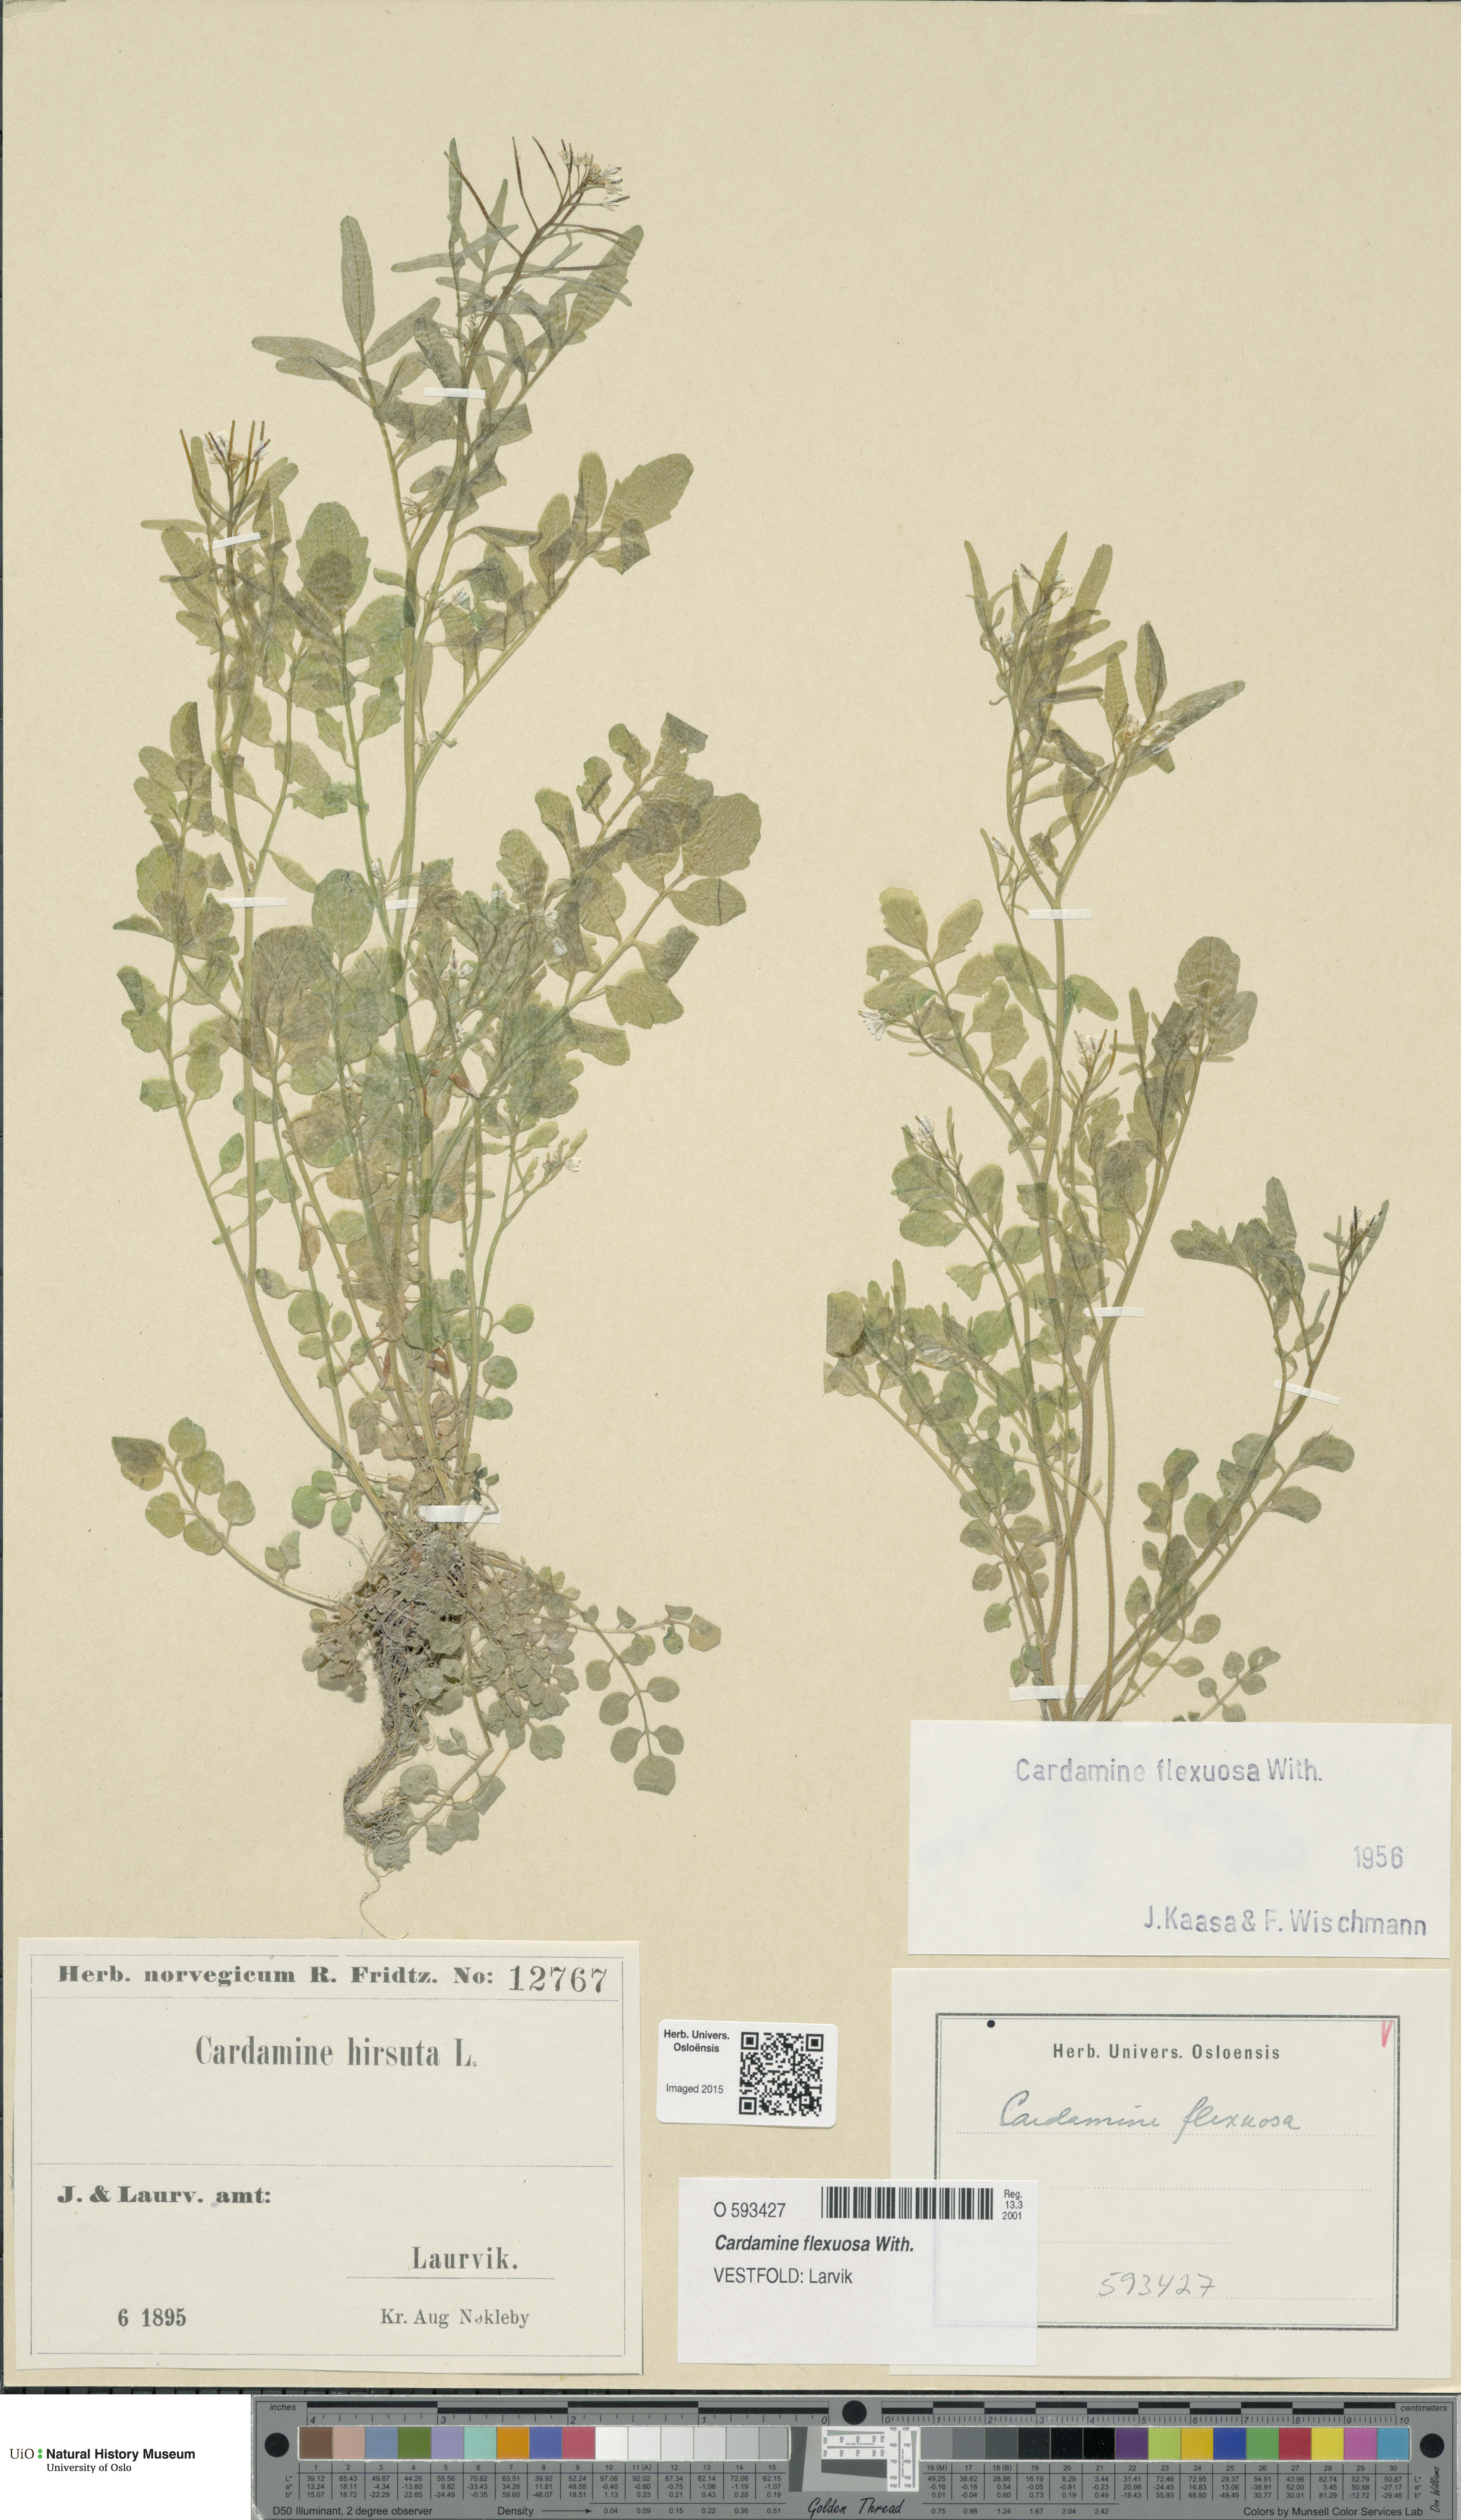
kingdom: Plantae
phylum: Tracheophyta
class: Magnoliopsida
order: Brassicales
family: Brassicaceae
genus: Cardamine
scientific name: Cardamine flexuosa
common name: Woodland bittercress
